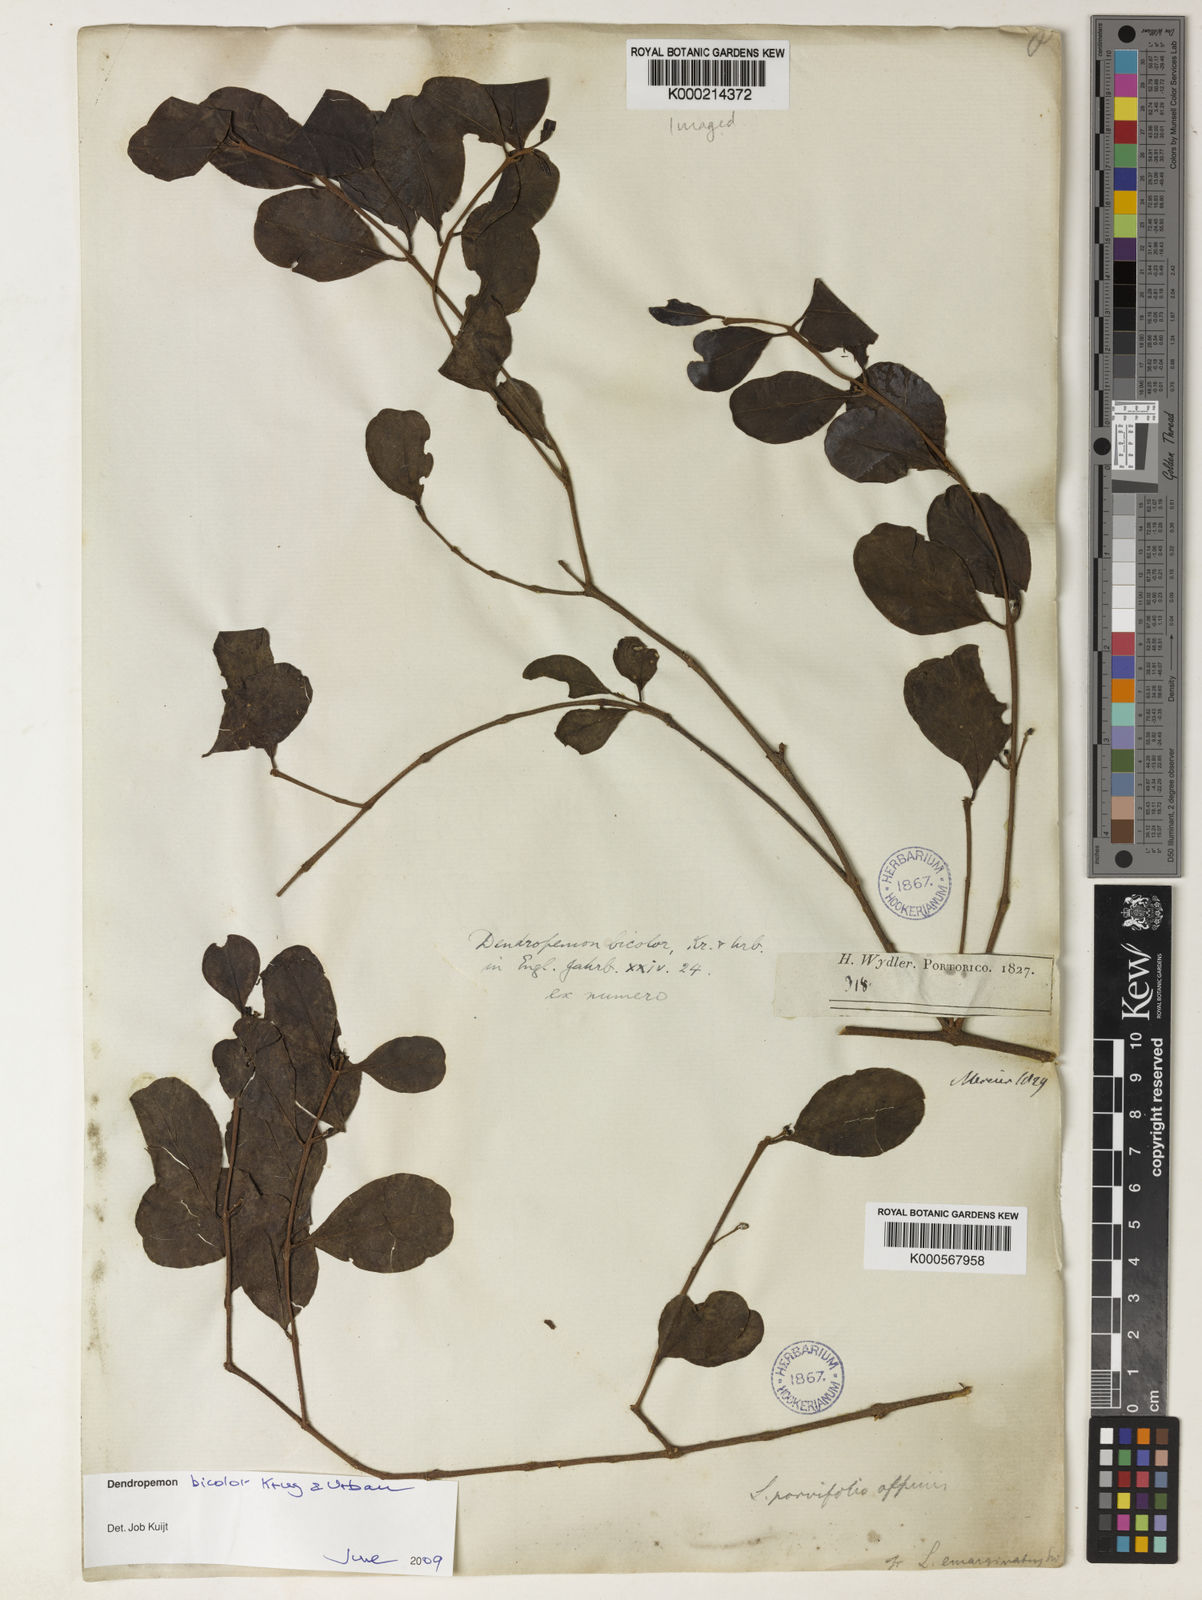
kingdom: Plantae
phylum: Tracheophyta
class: Magnoliopsida
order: Santalales
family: Loranthaceae
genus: Dendropemon
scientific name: Dendropemon bicolor
